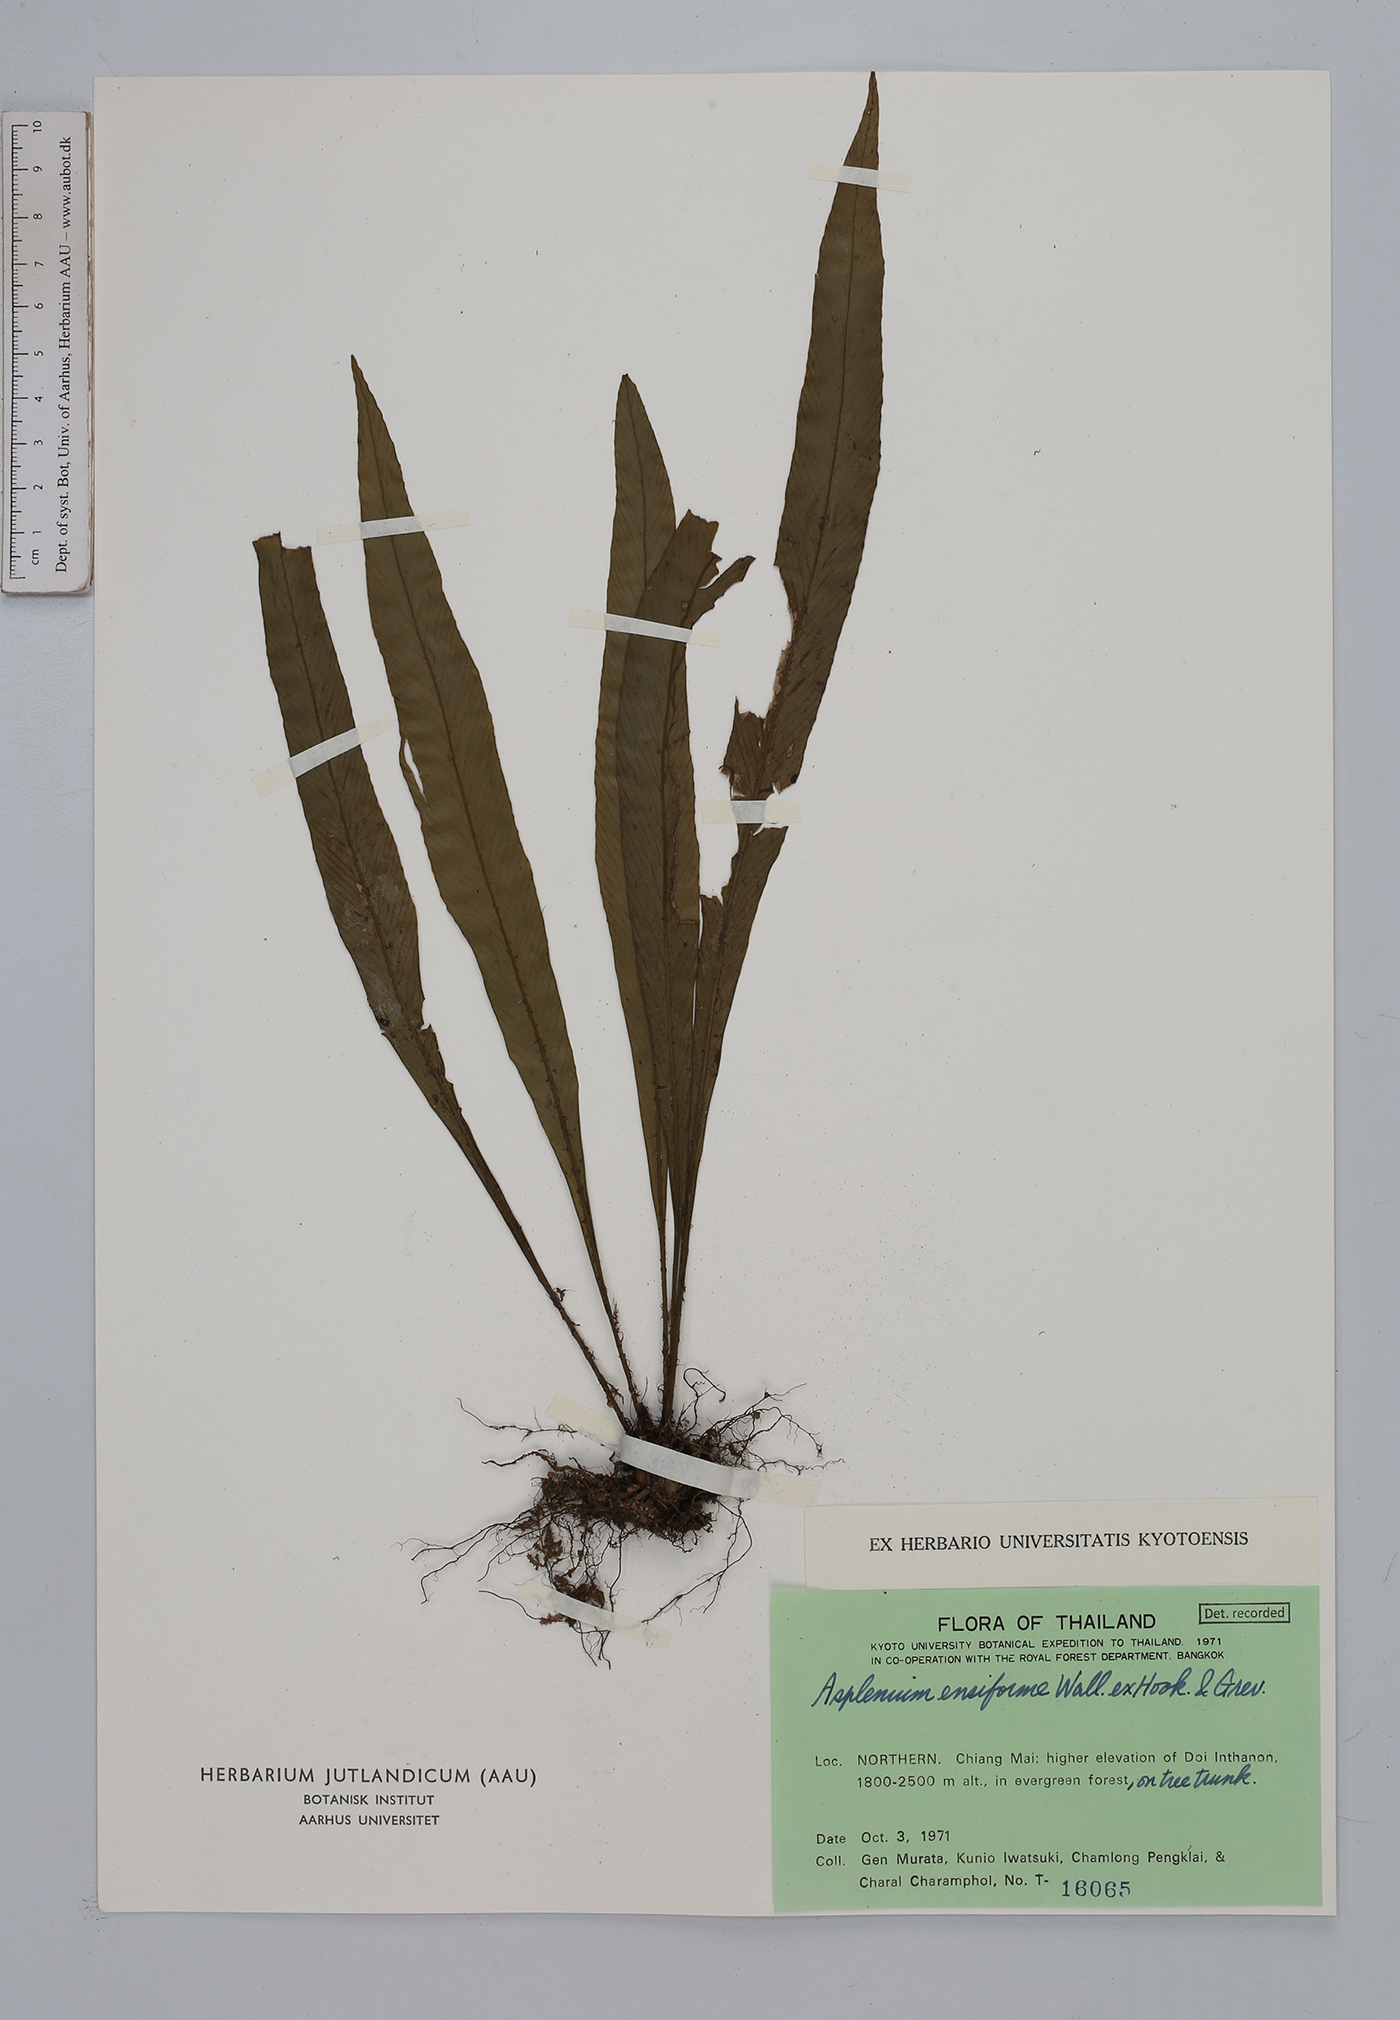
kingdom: Plantae
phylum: Tracheophyta
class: Polypodiopsida
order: Polypodiales
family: Aspleniaceae
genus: Asplenium
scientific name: Asplenium ensiforme
